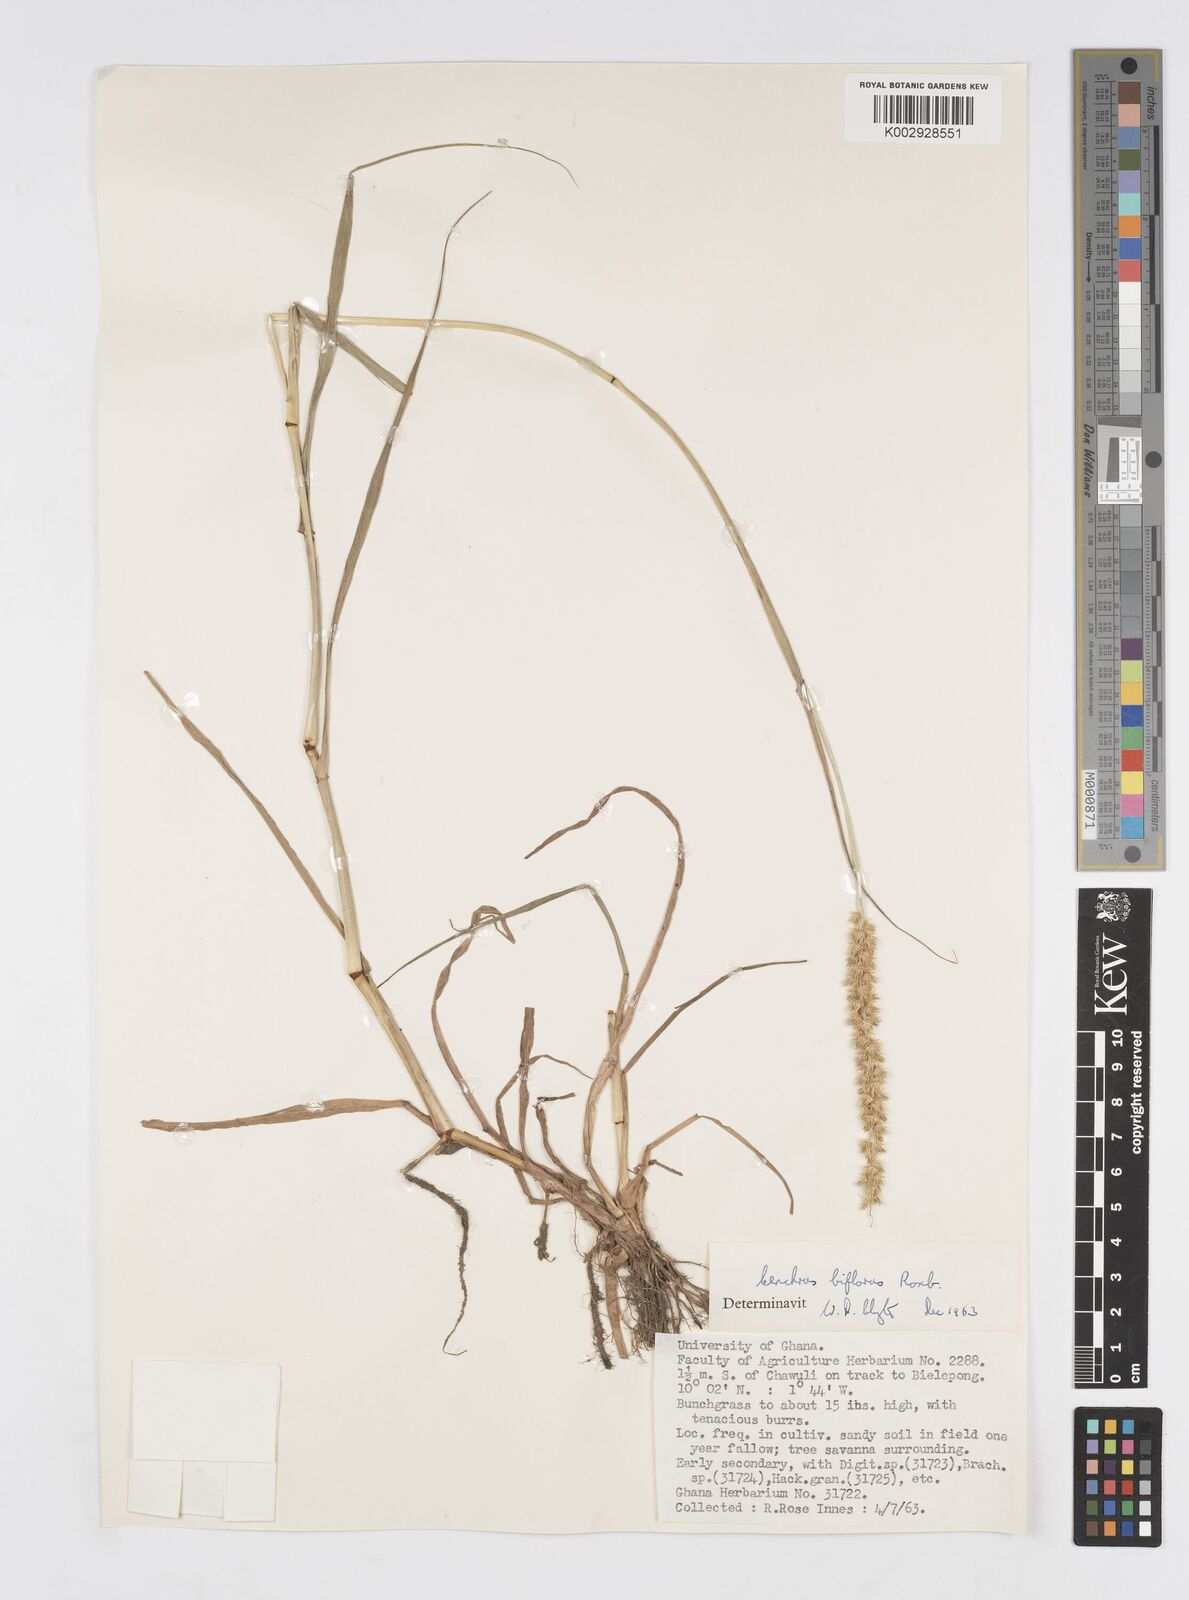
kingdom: Plantae
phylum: Tracheophyta
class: Liliopsida
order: Poales
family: Poaceae
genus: Cenchrus
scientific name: Cenchrus biflorus
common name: Indian sandbur
